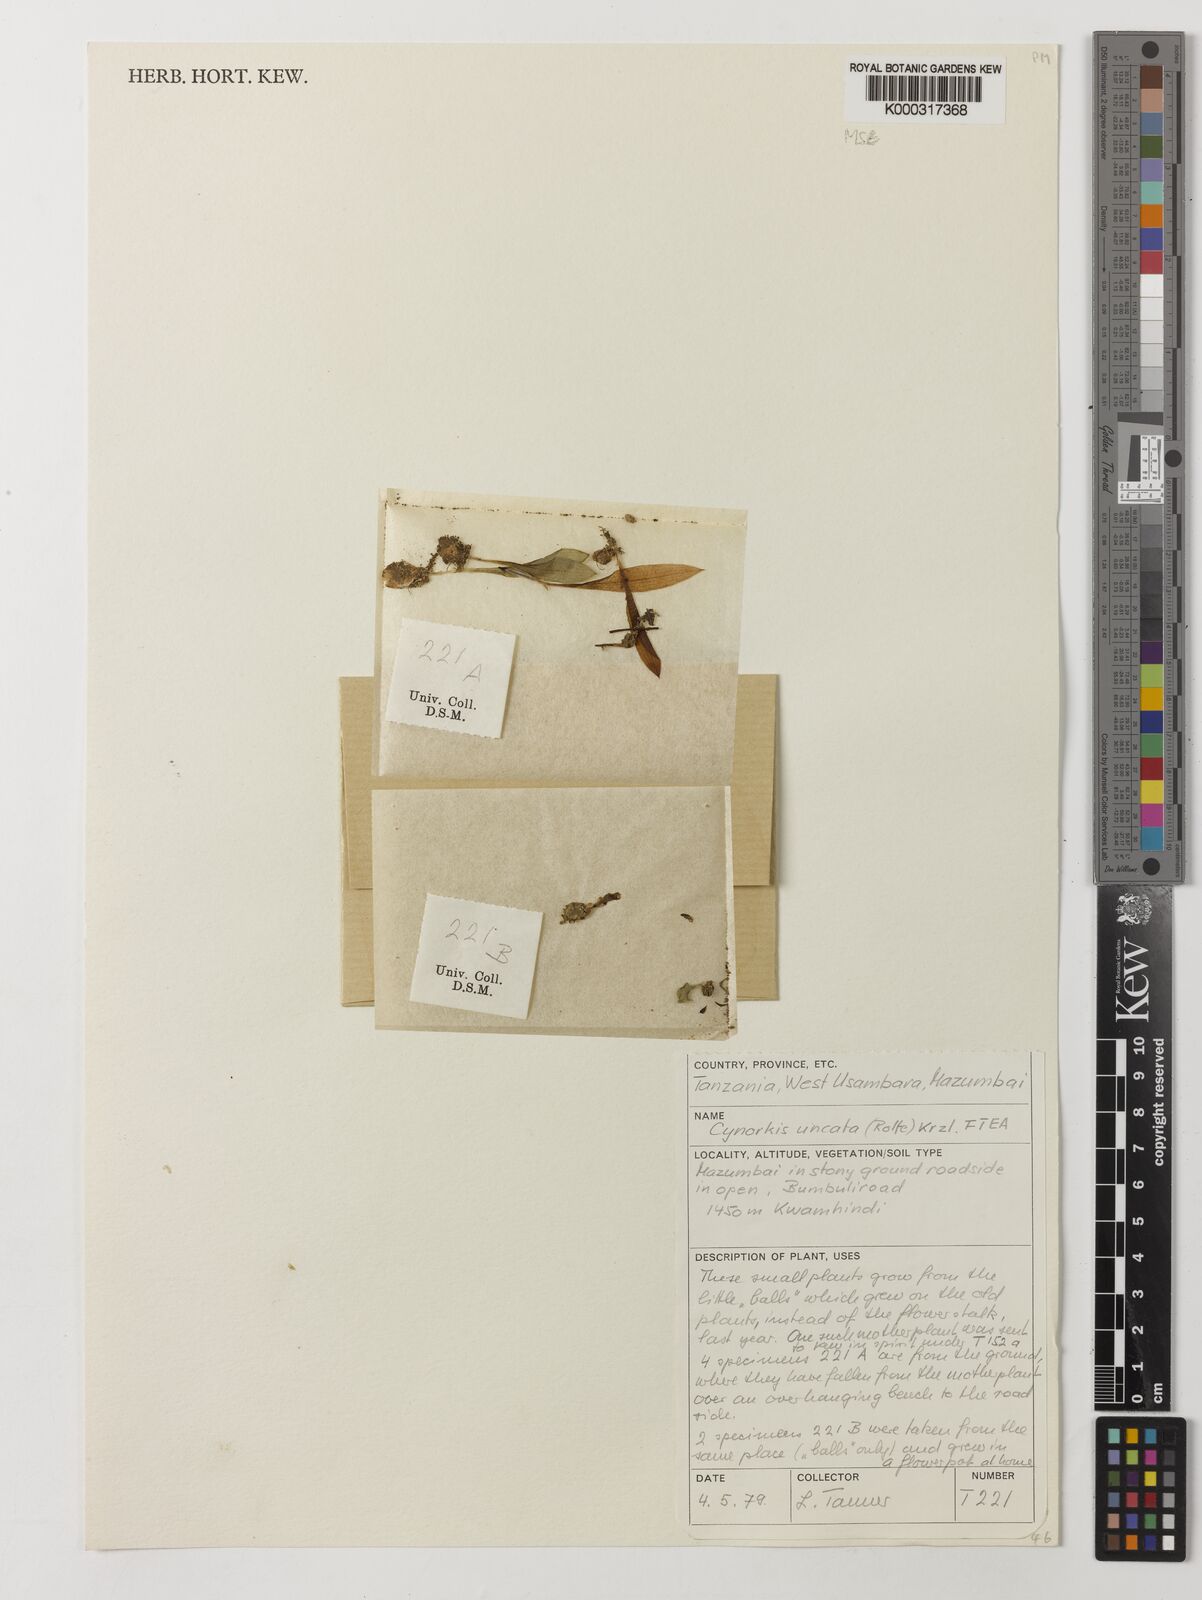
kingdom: Plantae
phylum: Tracheophyta
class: Liliopsida
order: Asparagales
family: Orchidaceae
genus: Cynorkis
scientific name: Cynorkis uncata
